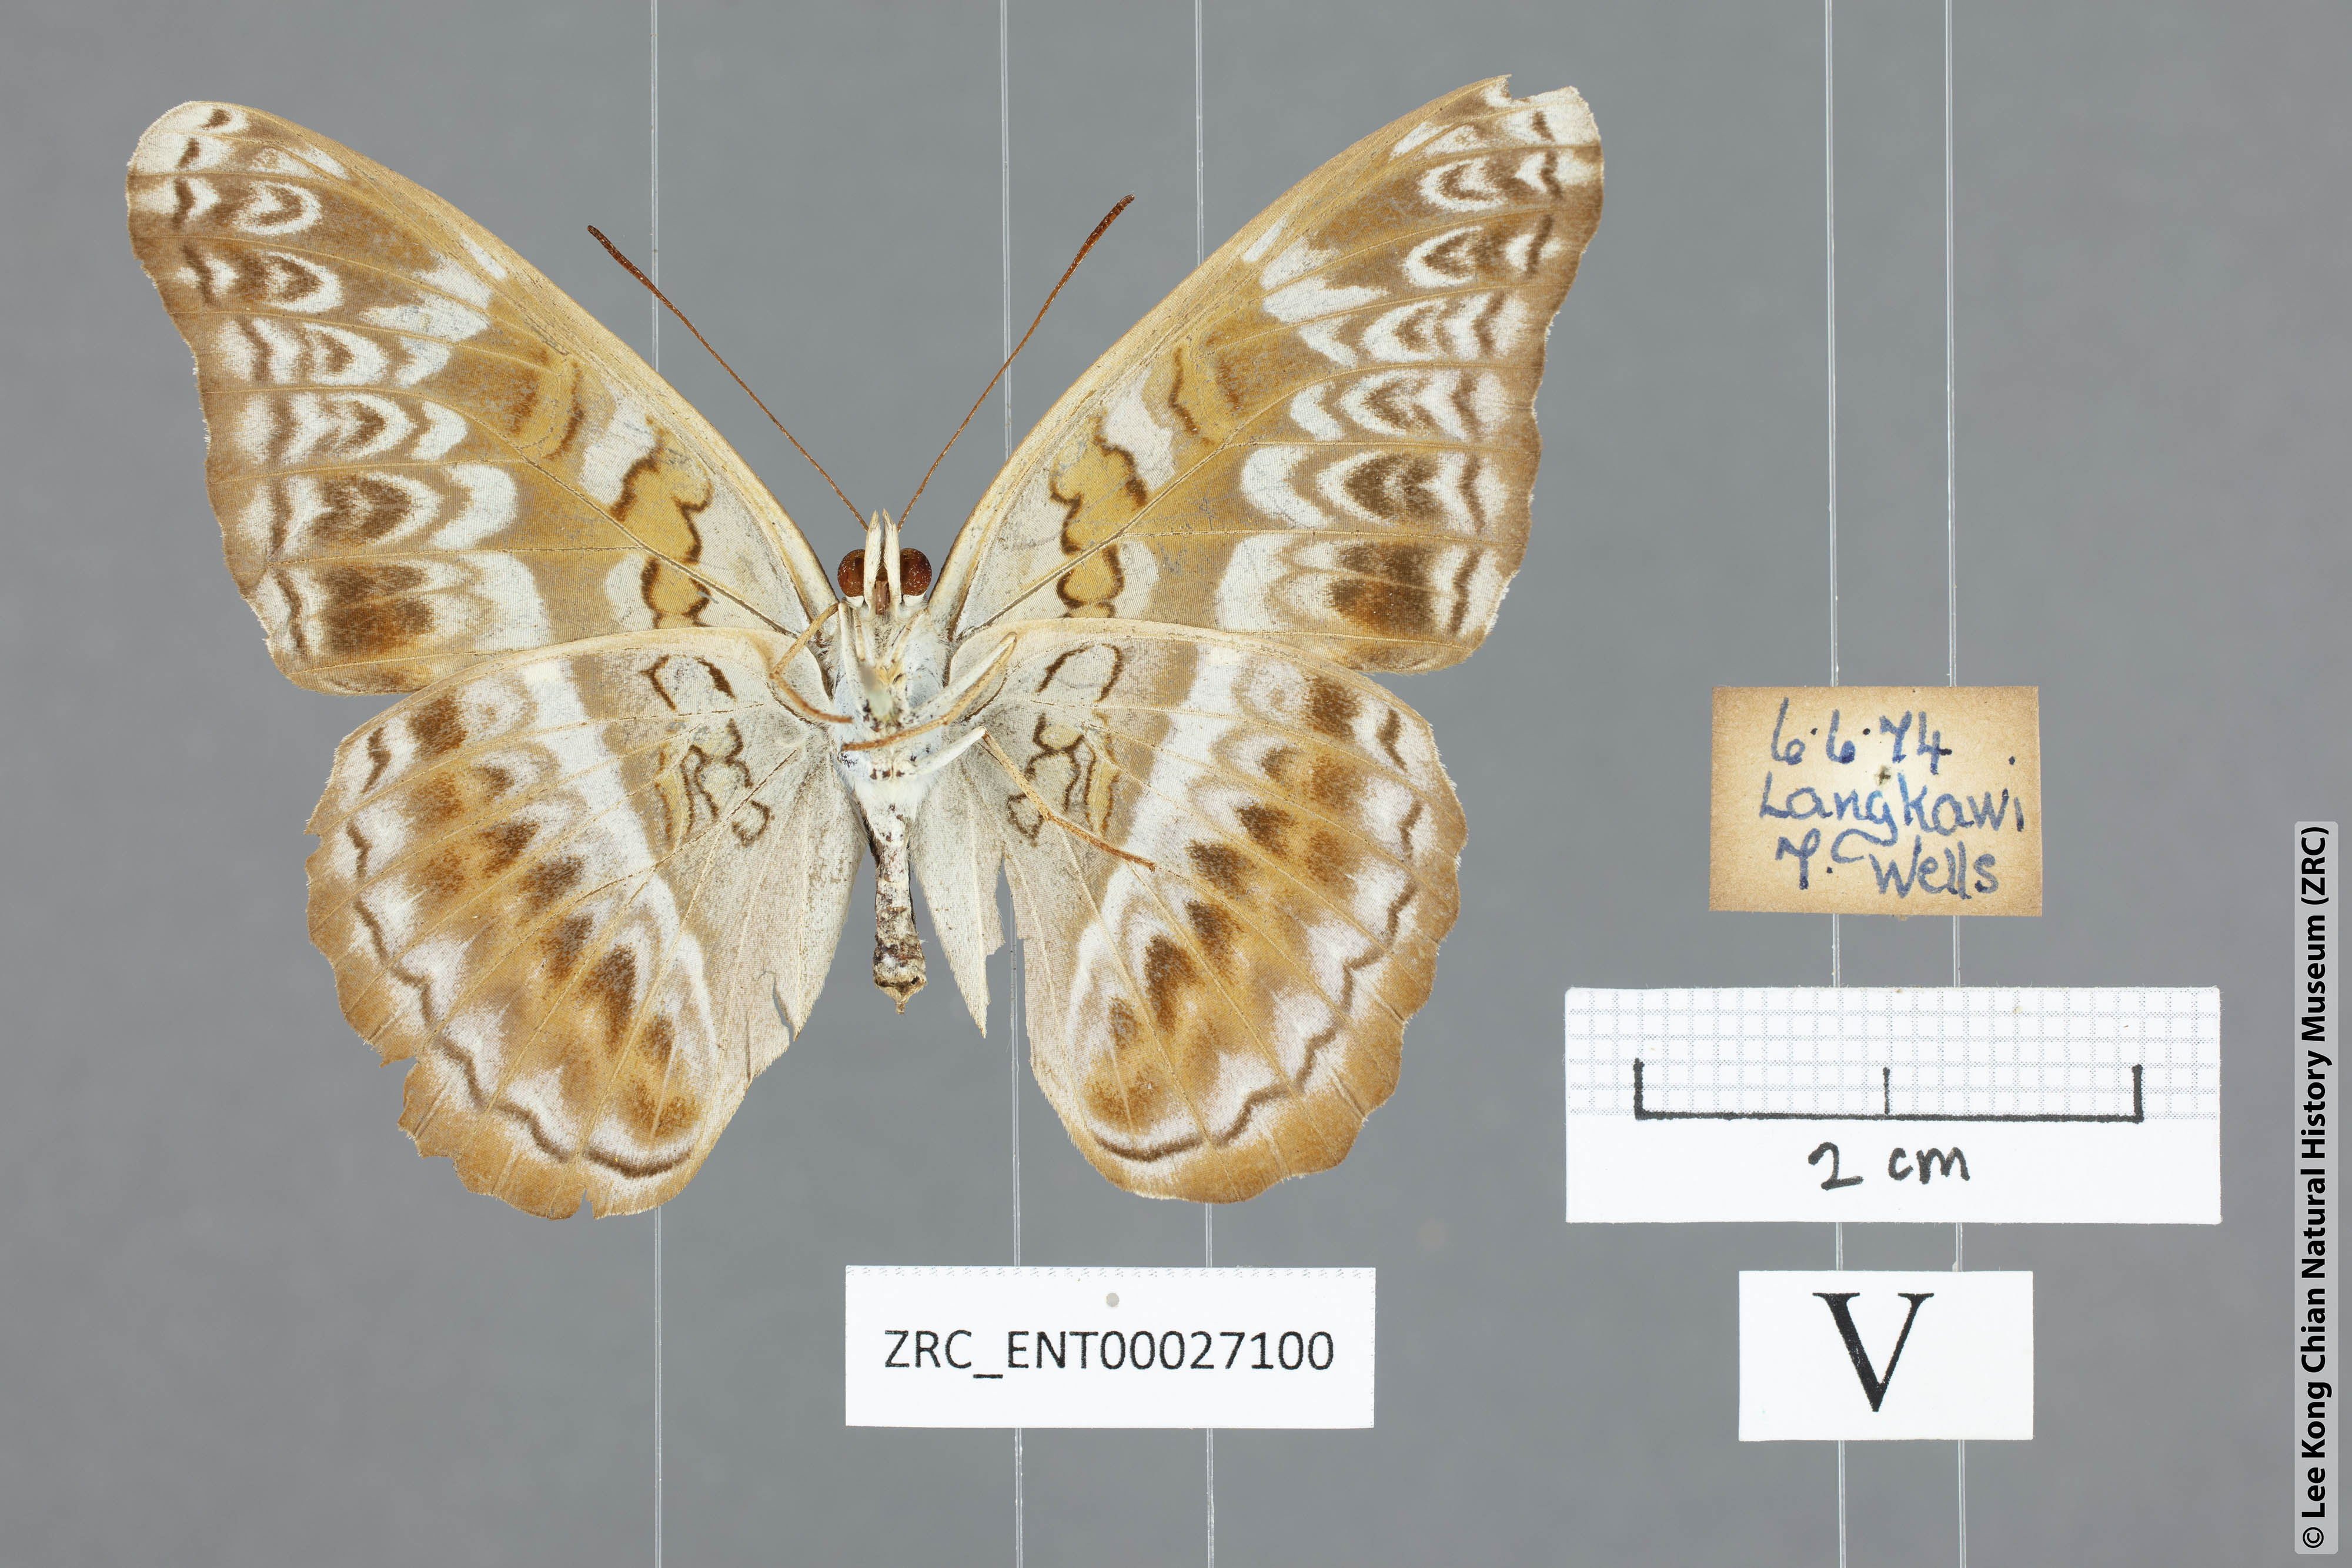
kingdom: Animalia
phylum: Arthropoda
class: Insecta
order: Lepidoptera
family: Nymphalidae
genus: Lebadea
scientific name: Lebadea martha
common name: Knight
